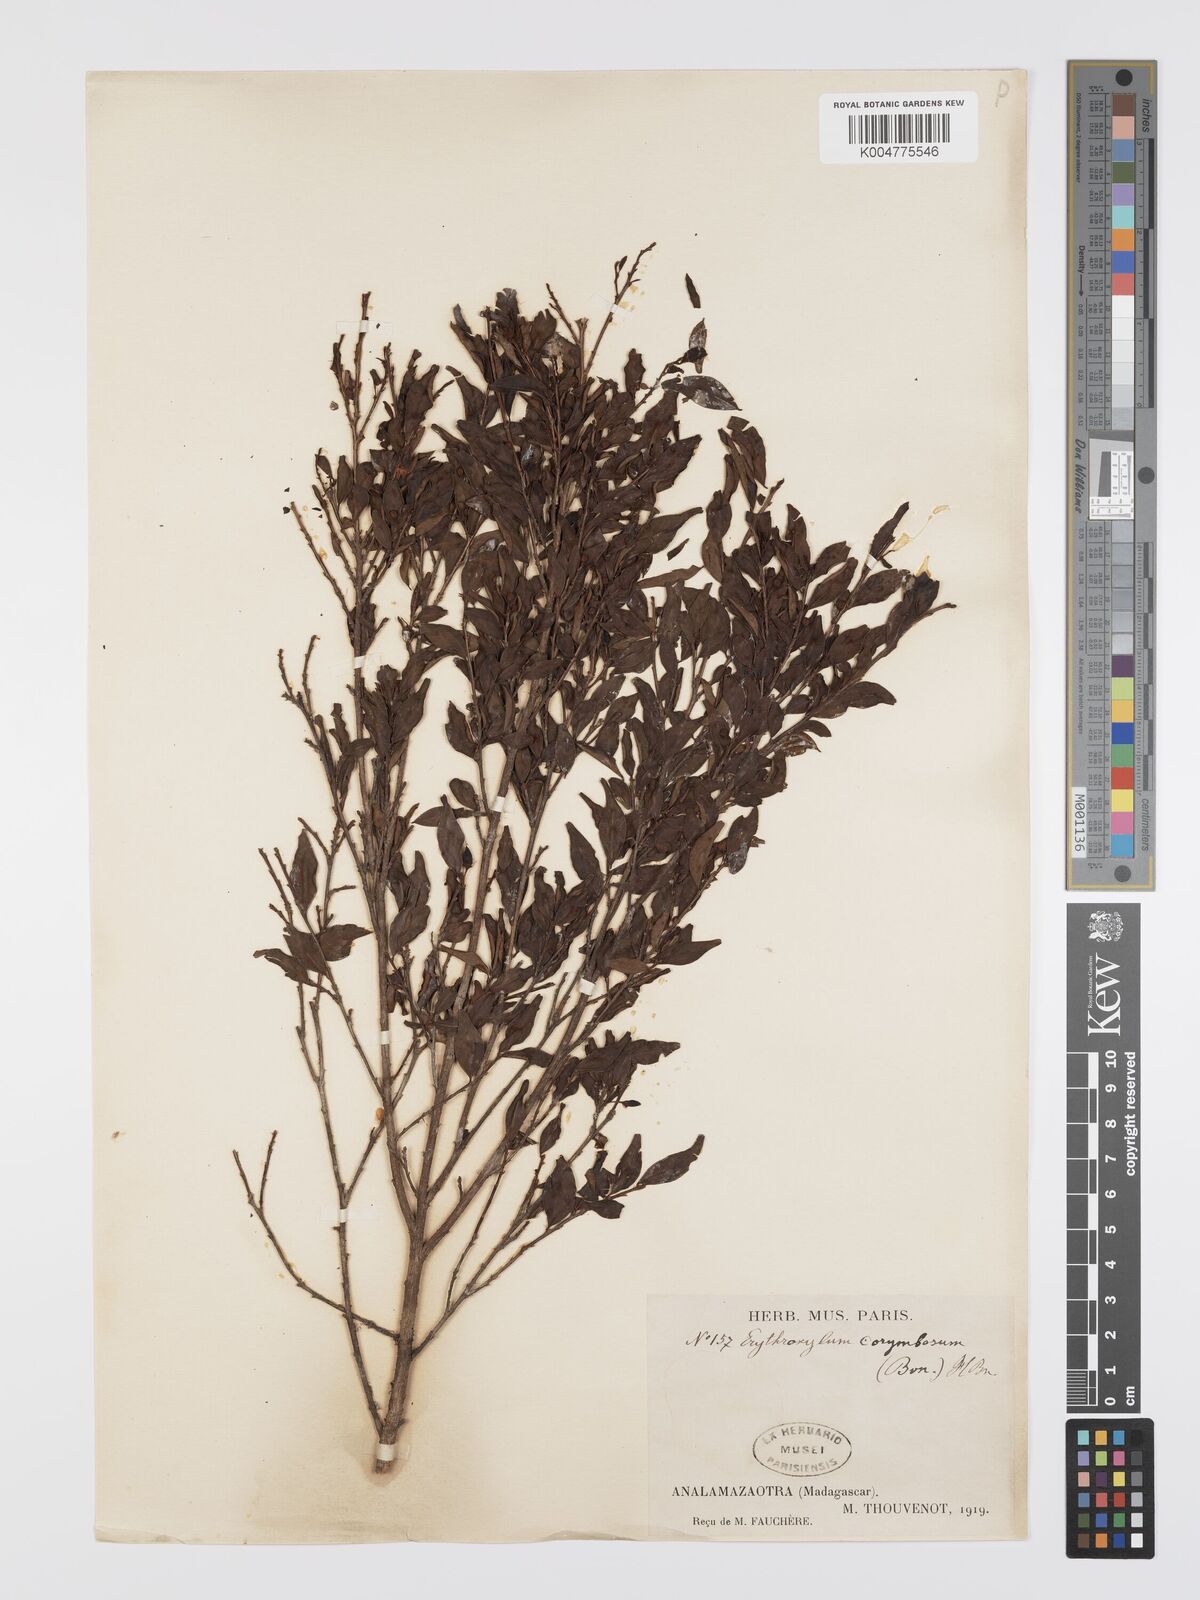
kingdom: Plantae
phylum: Tracheophyta
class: Magnoliopsida
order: Malpighiales
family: Erythroxylaceae
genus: Erythroxylum
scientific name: Erythroxylum corymbosum
